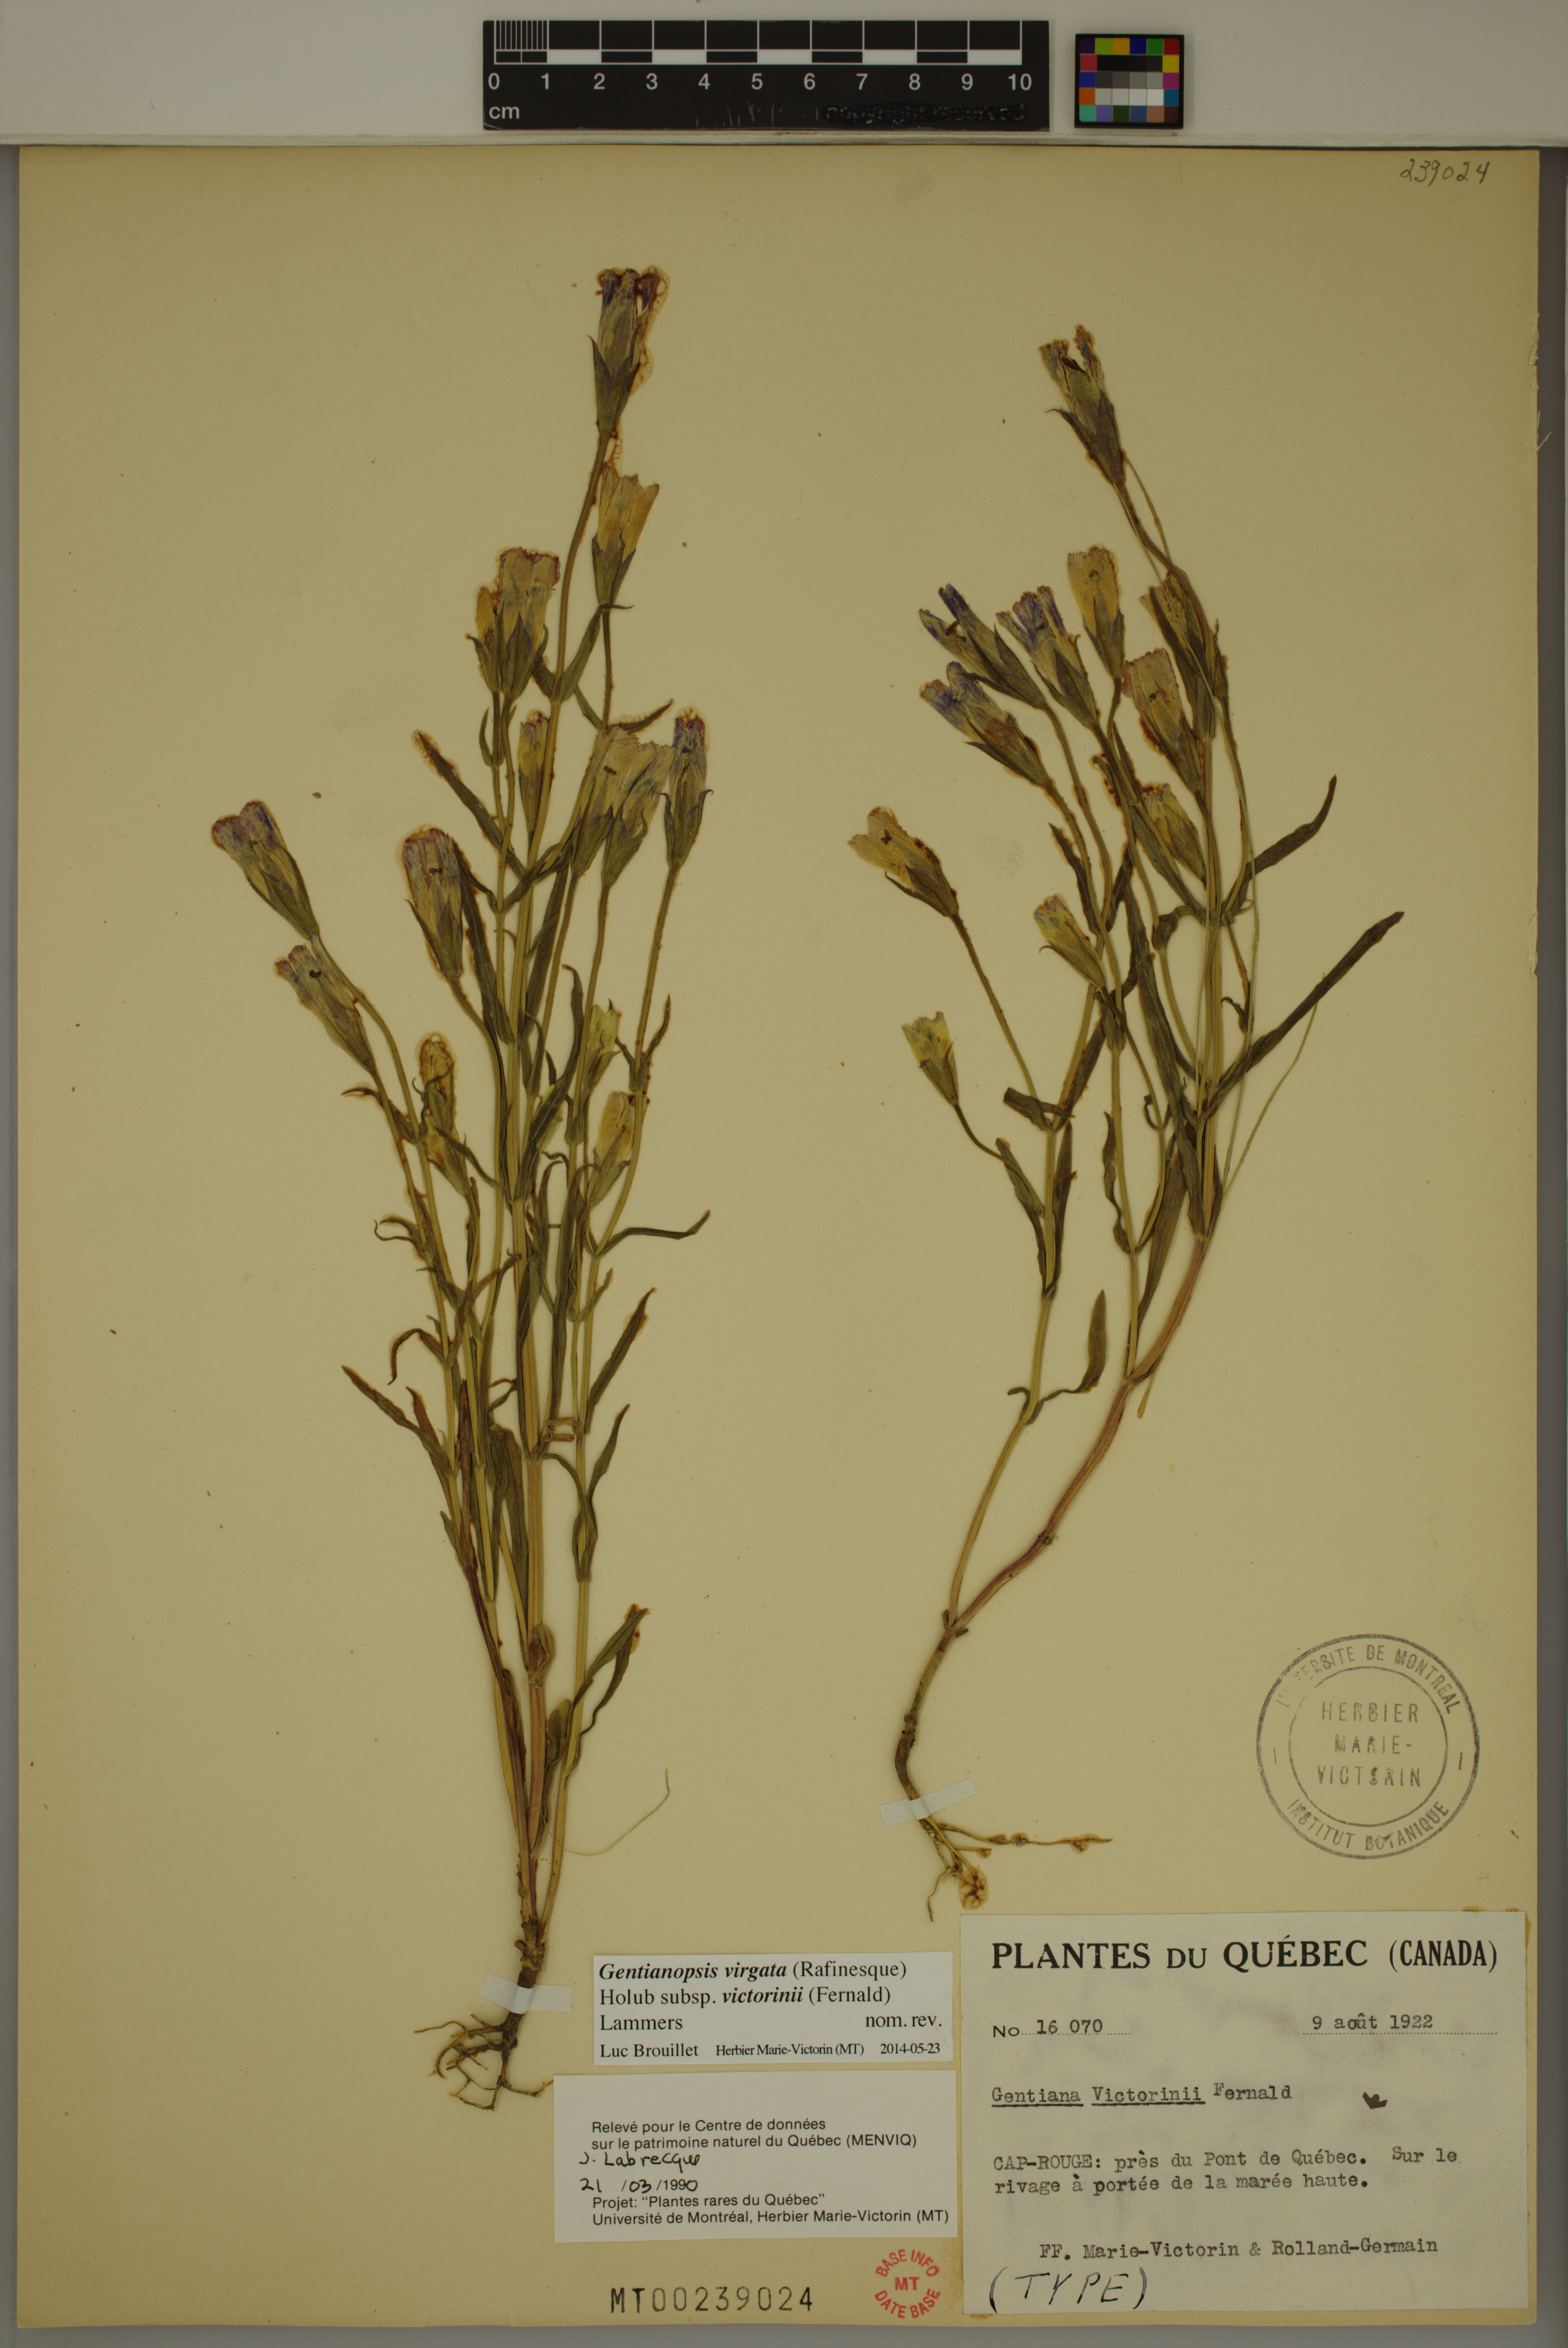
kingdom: Plantae
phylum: Tracheophyta
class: Magnoliopsida
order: Gentianales
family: Gentianaceae
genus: Gentianopsis
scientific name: Gentianopsis victorinii
